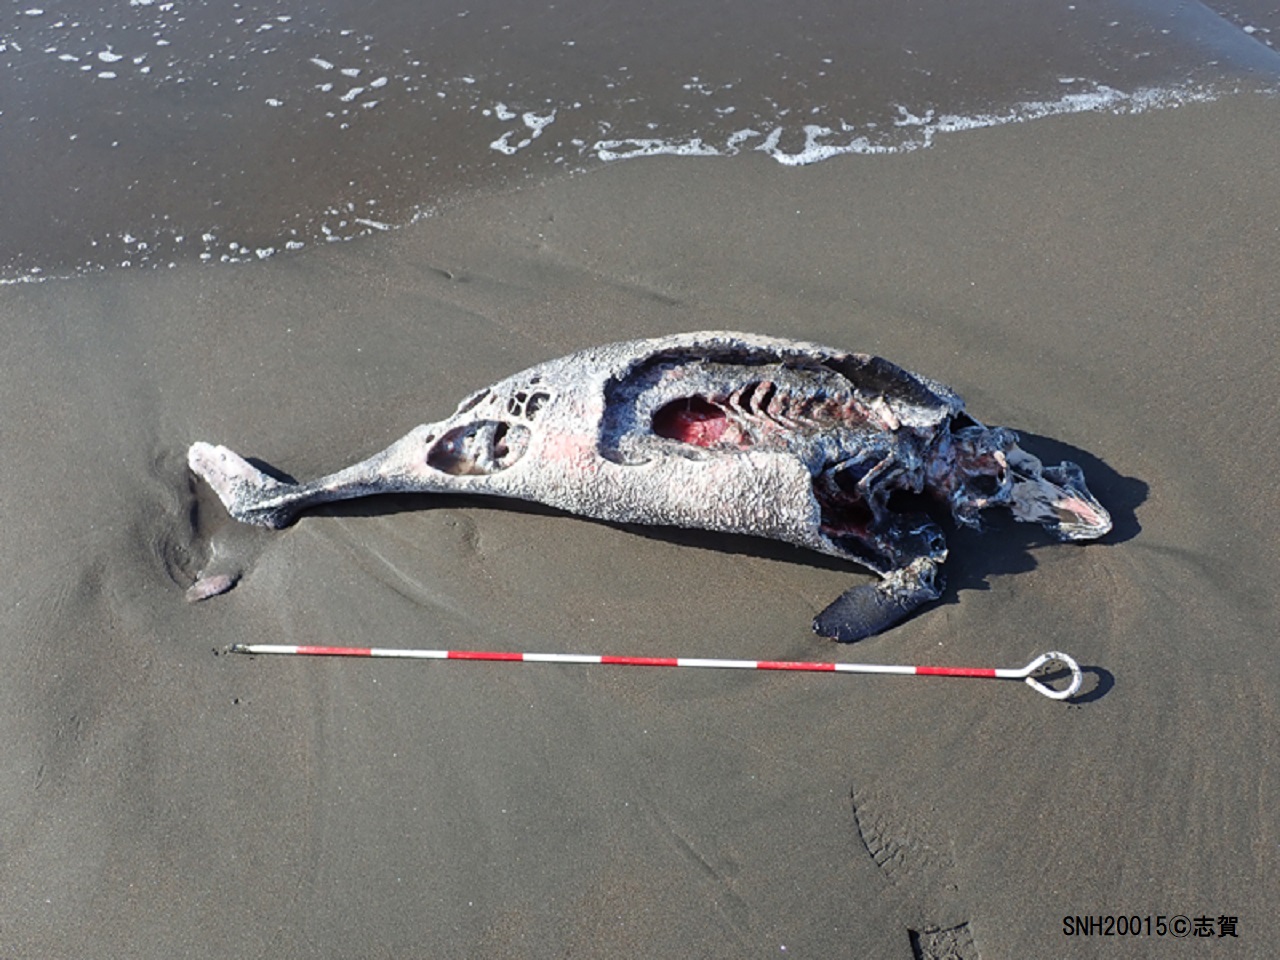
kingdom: Animalia
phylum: Chordata
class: Mammalia
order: Cetacea
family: Phocoenidae
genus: Phocoena
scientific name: Phocoena phocoena
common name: Harbour porpoise
